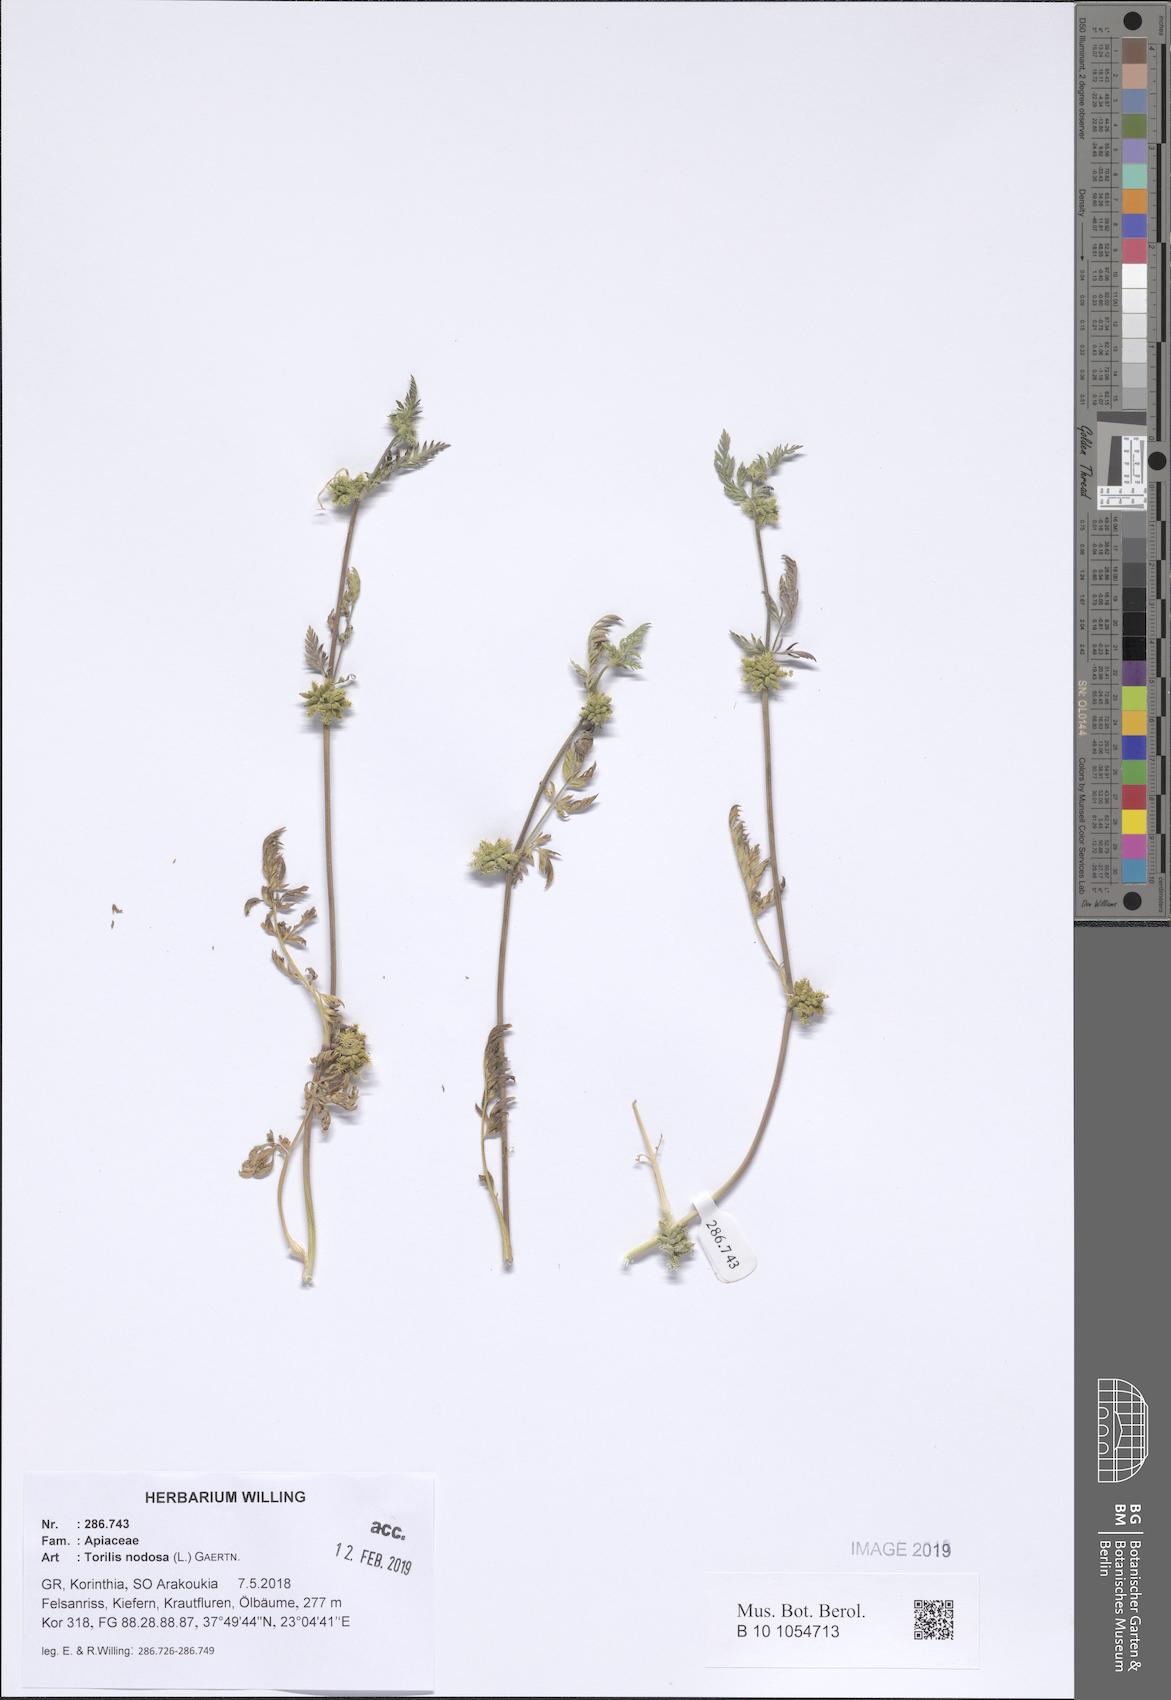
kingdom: Plantae
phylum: Tracheophyta
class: Magnoliopsida
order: Apiales
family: Apiaceae
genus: Torilis
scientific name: Torilis nodosa
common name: Knotted hedge-parsley
